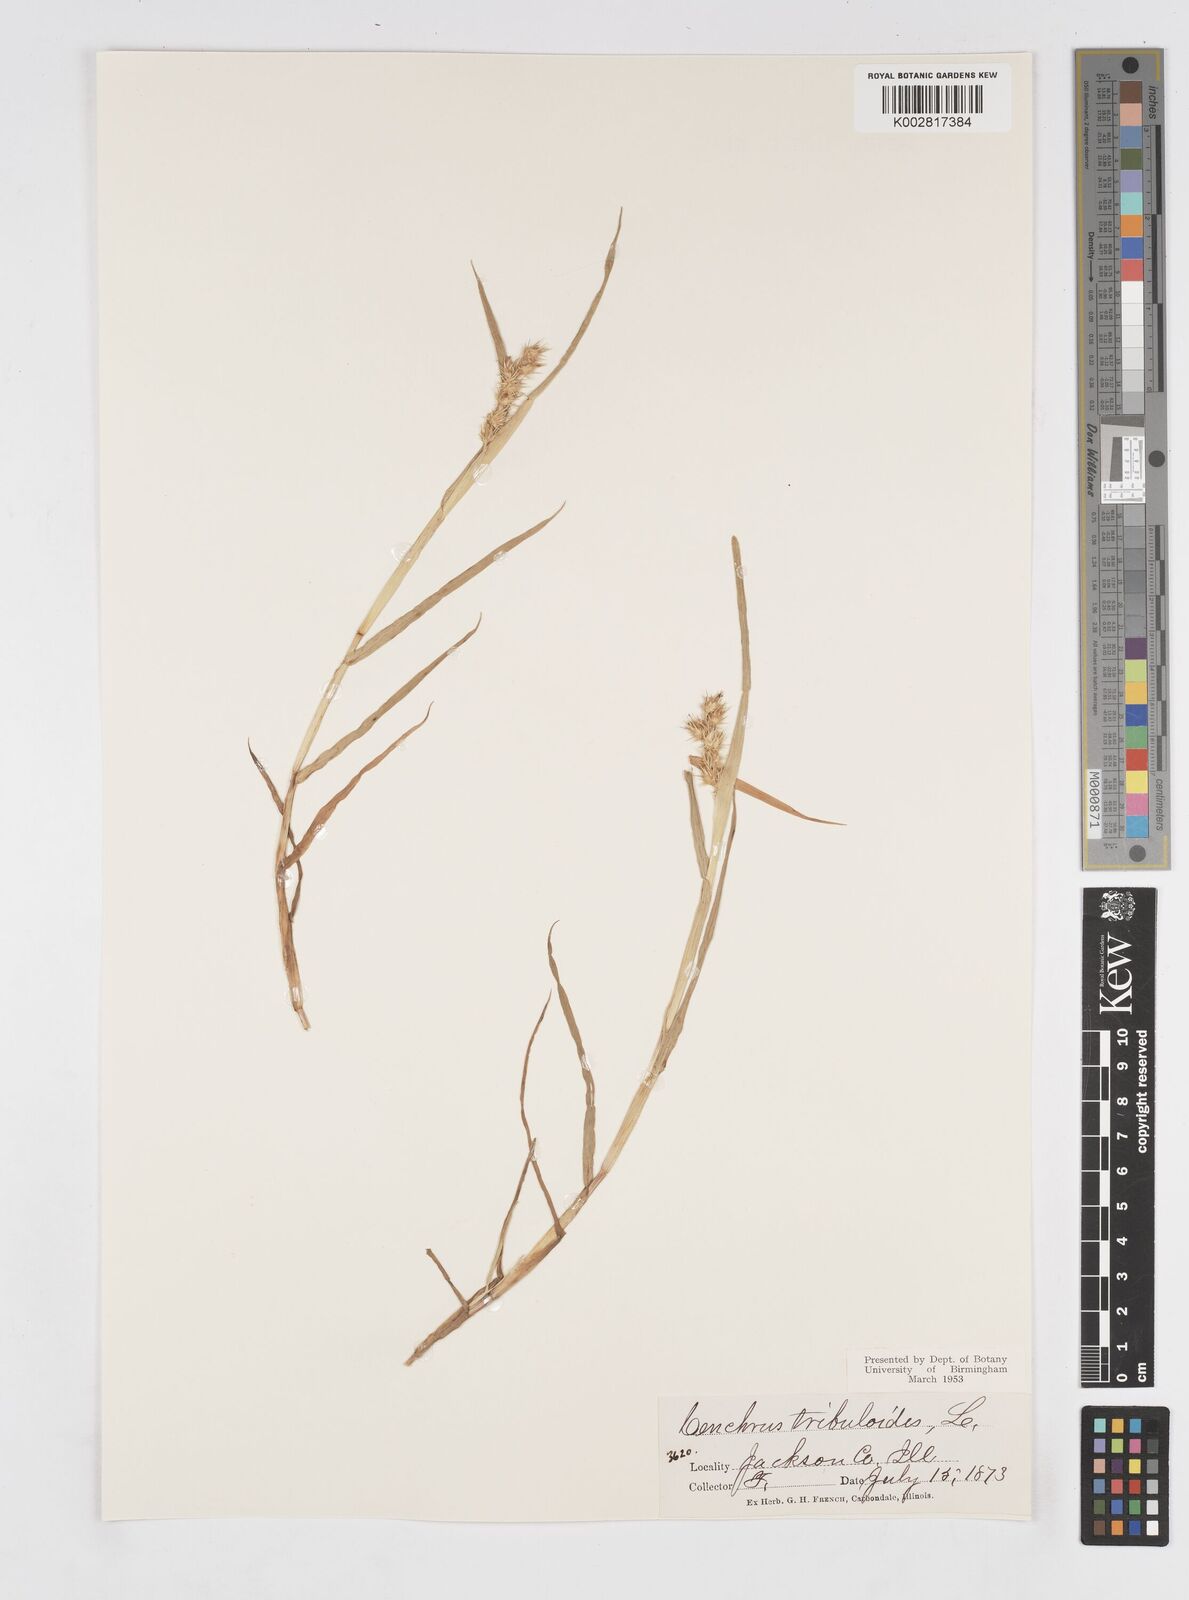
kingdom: Plantae
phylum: Tracheophyta
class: Liliopsida
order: Poales
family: Poaceae
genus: Cenchrus
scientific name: Cenchrus longispinus
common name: Mat sandbur
